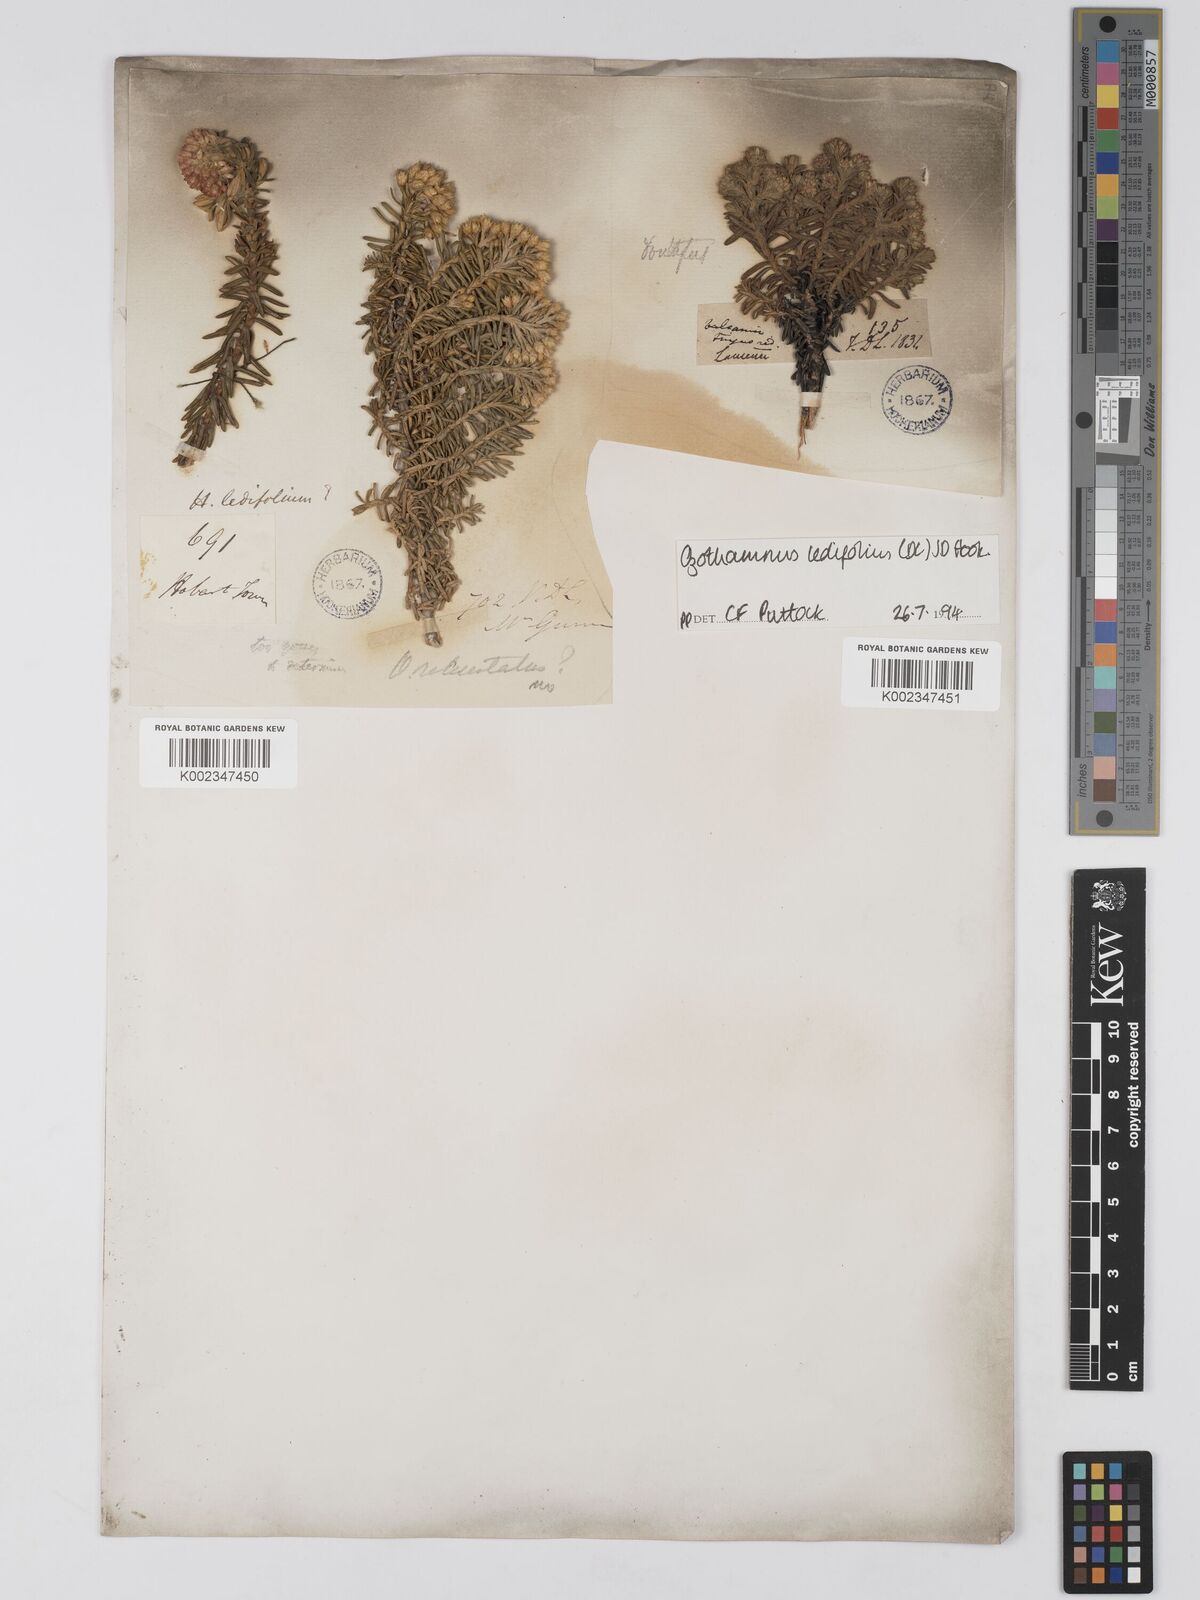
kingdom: Plantae
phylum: Tracheophyta
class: Magnoliopsida
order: Asterales
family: Asteraceae
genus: Ozothamnus
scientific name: Ozothamnus ledifolius
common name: Kerosene-weed
